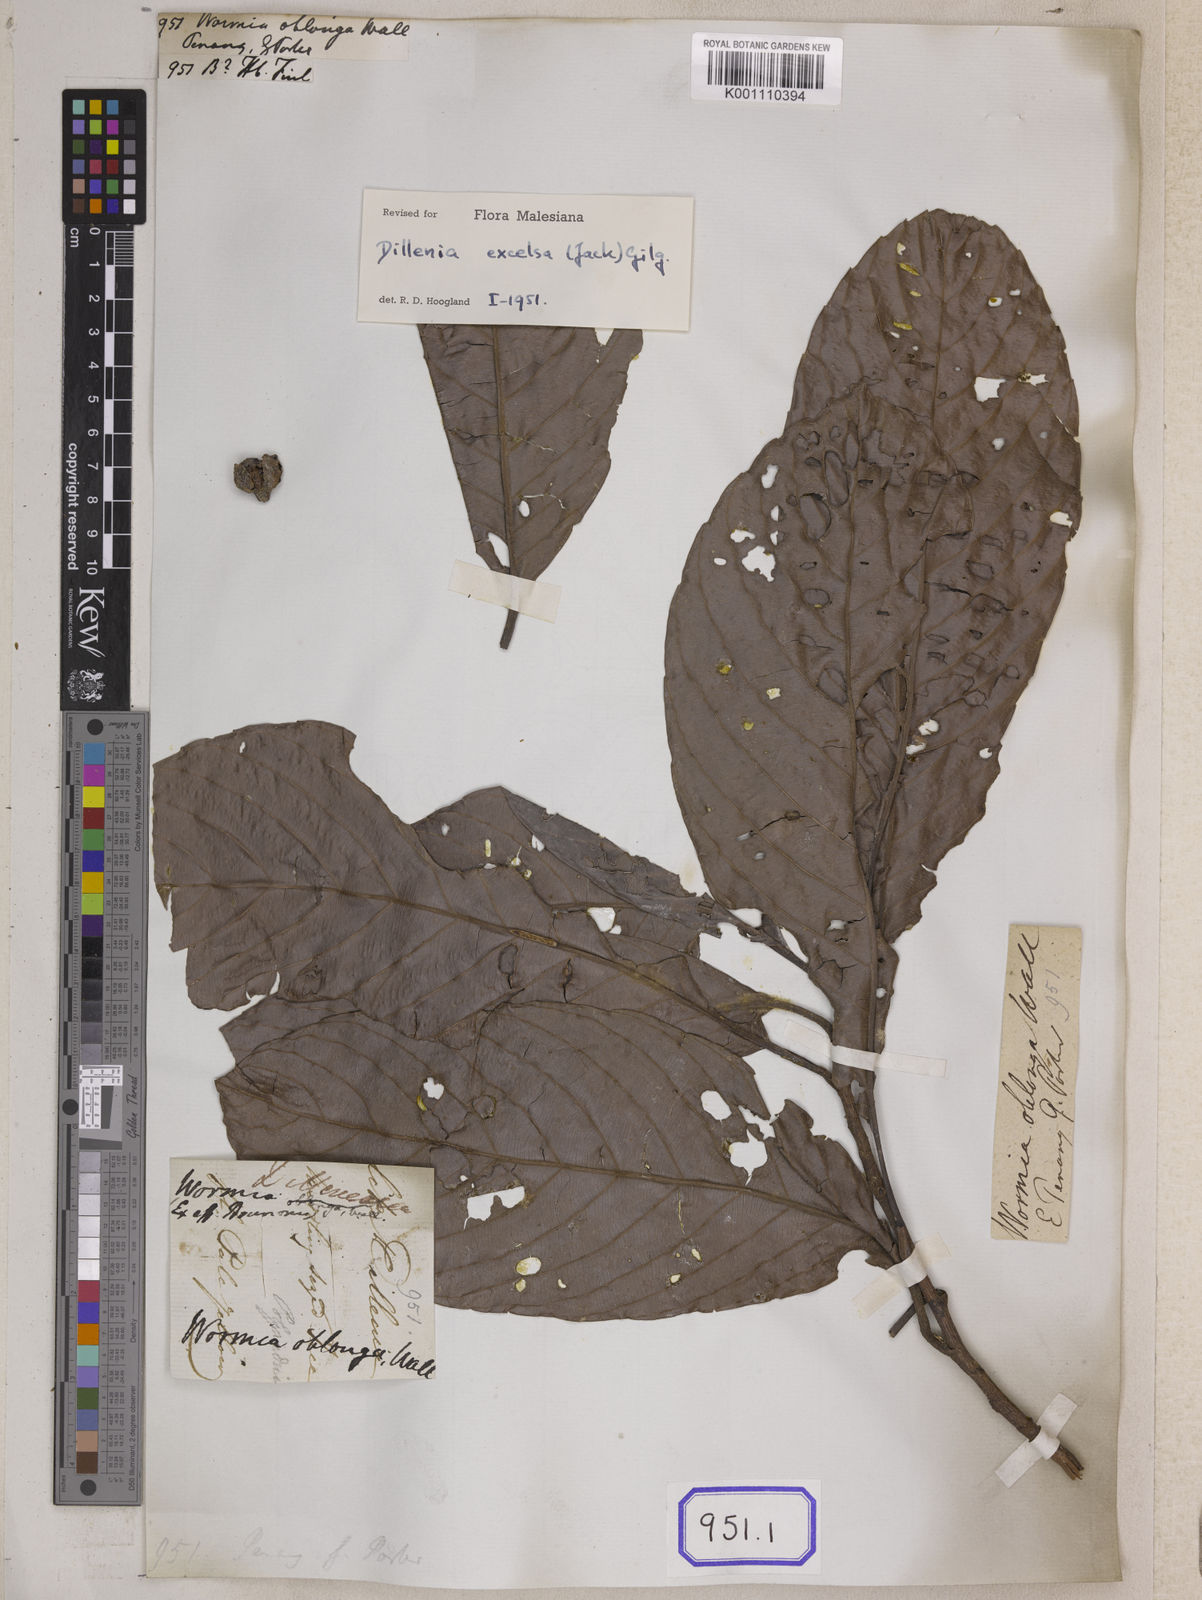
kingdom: Plantae
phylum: Tracheophyta
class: Magnoliopsida
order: Dilleniales
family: Dilleniaceae
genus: Dillenia
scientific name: Dillenia
